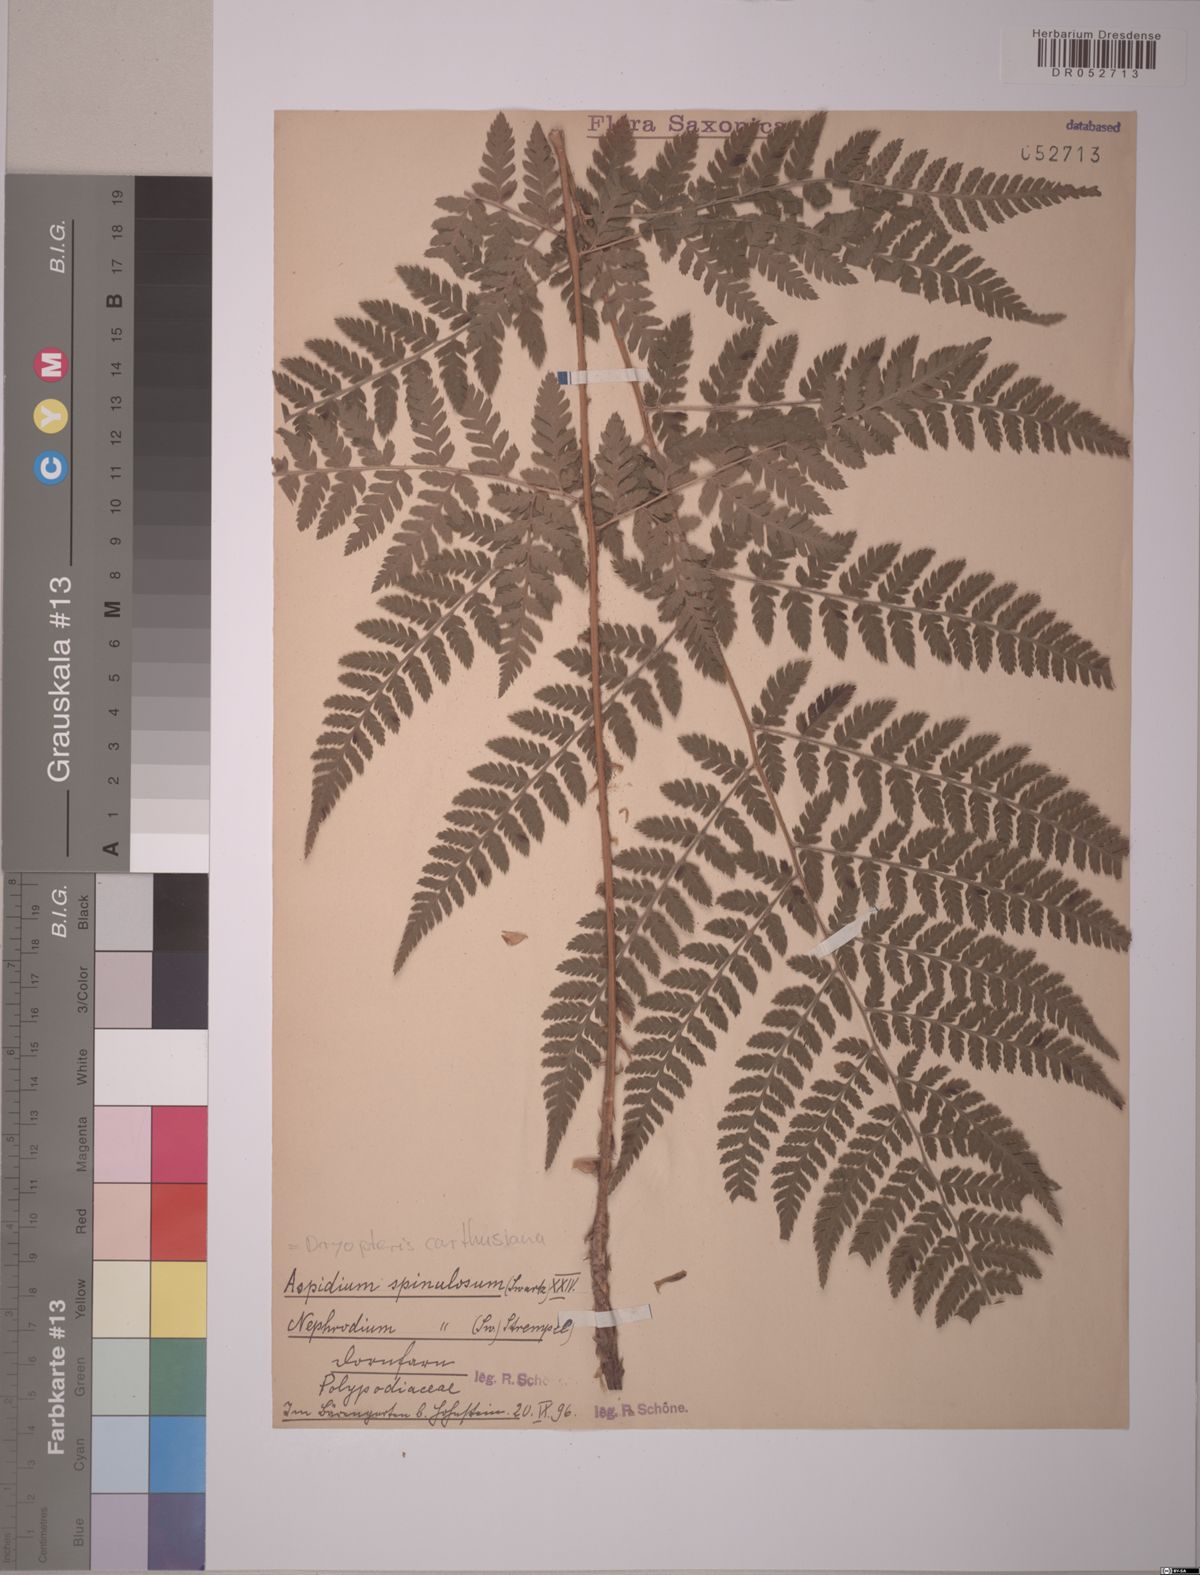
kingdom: Plantae
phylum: Tracheophyta
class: Polypodiopsida
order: Polypodiales
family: Dryopteridaceae
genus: Dryopteris
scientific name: Dryopteris carthusiana
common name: Narrow buckler-fern
